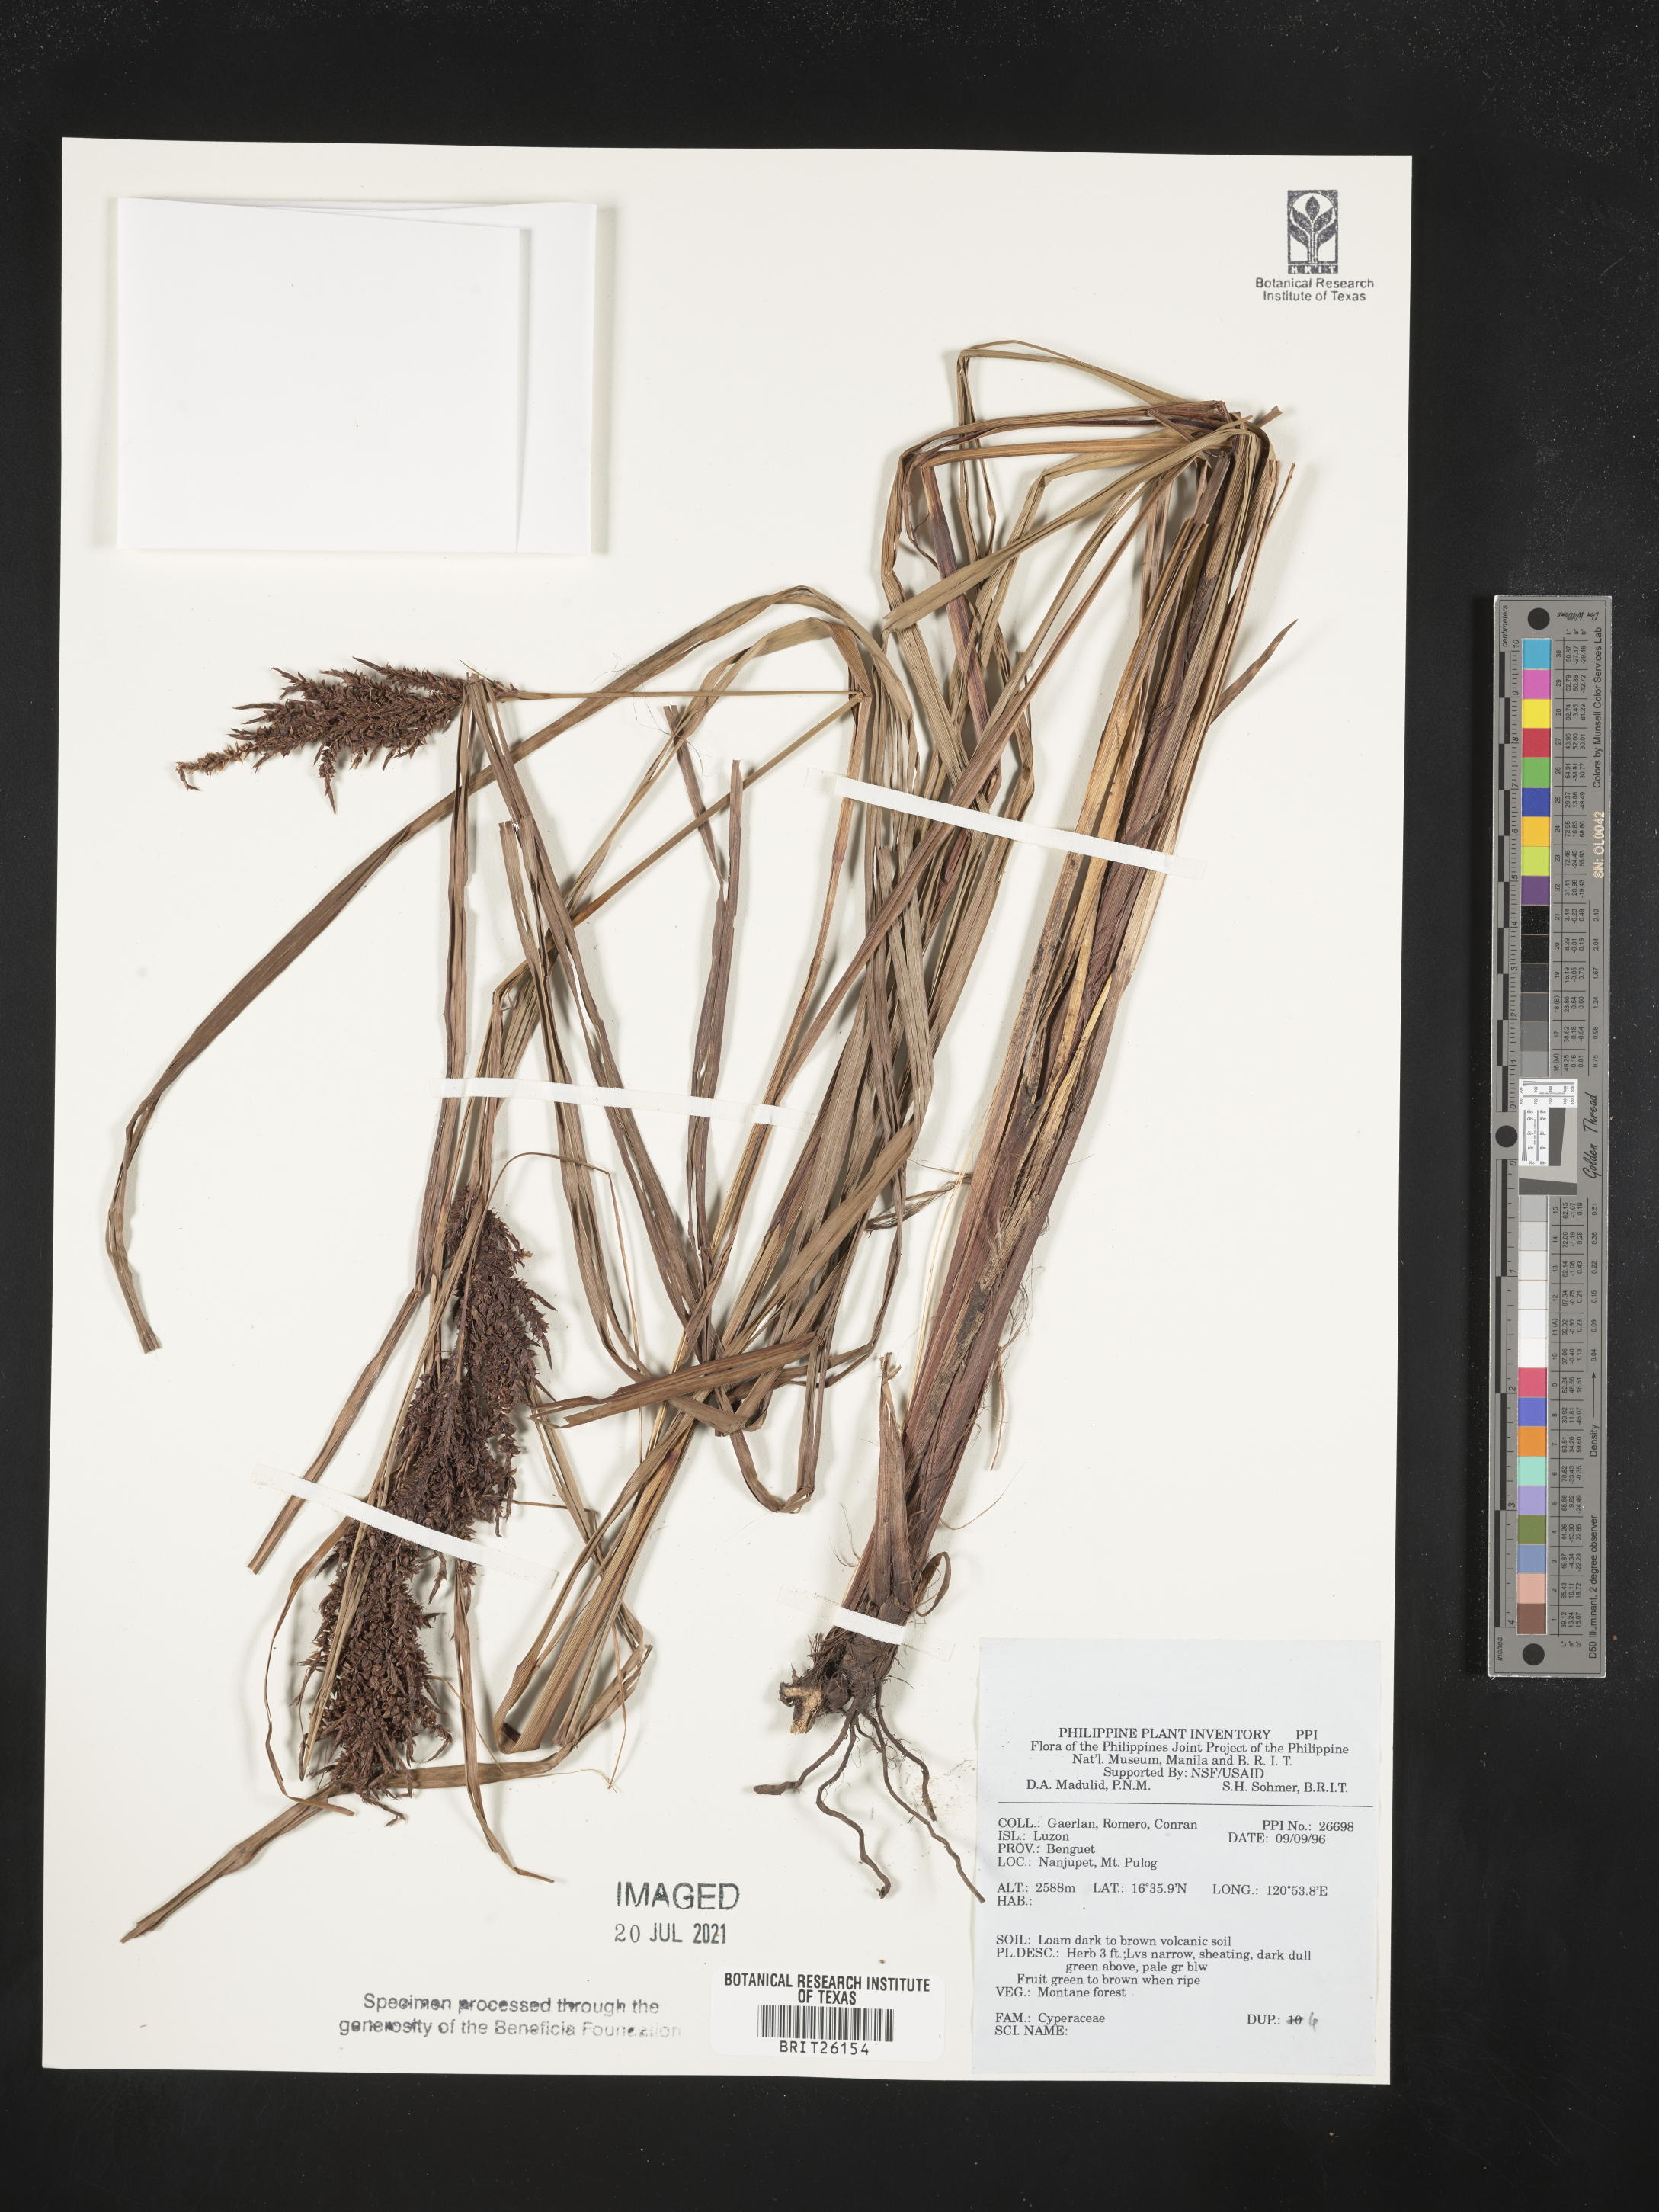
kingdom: Plantae
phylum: Tracheophyta
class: Liliopsida
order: Poales
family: Cyperaceae
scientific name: Cyperaceae
